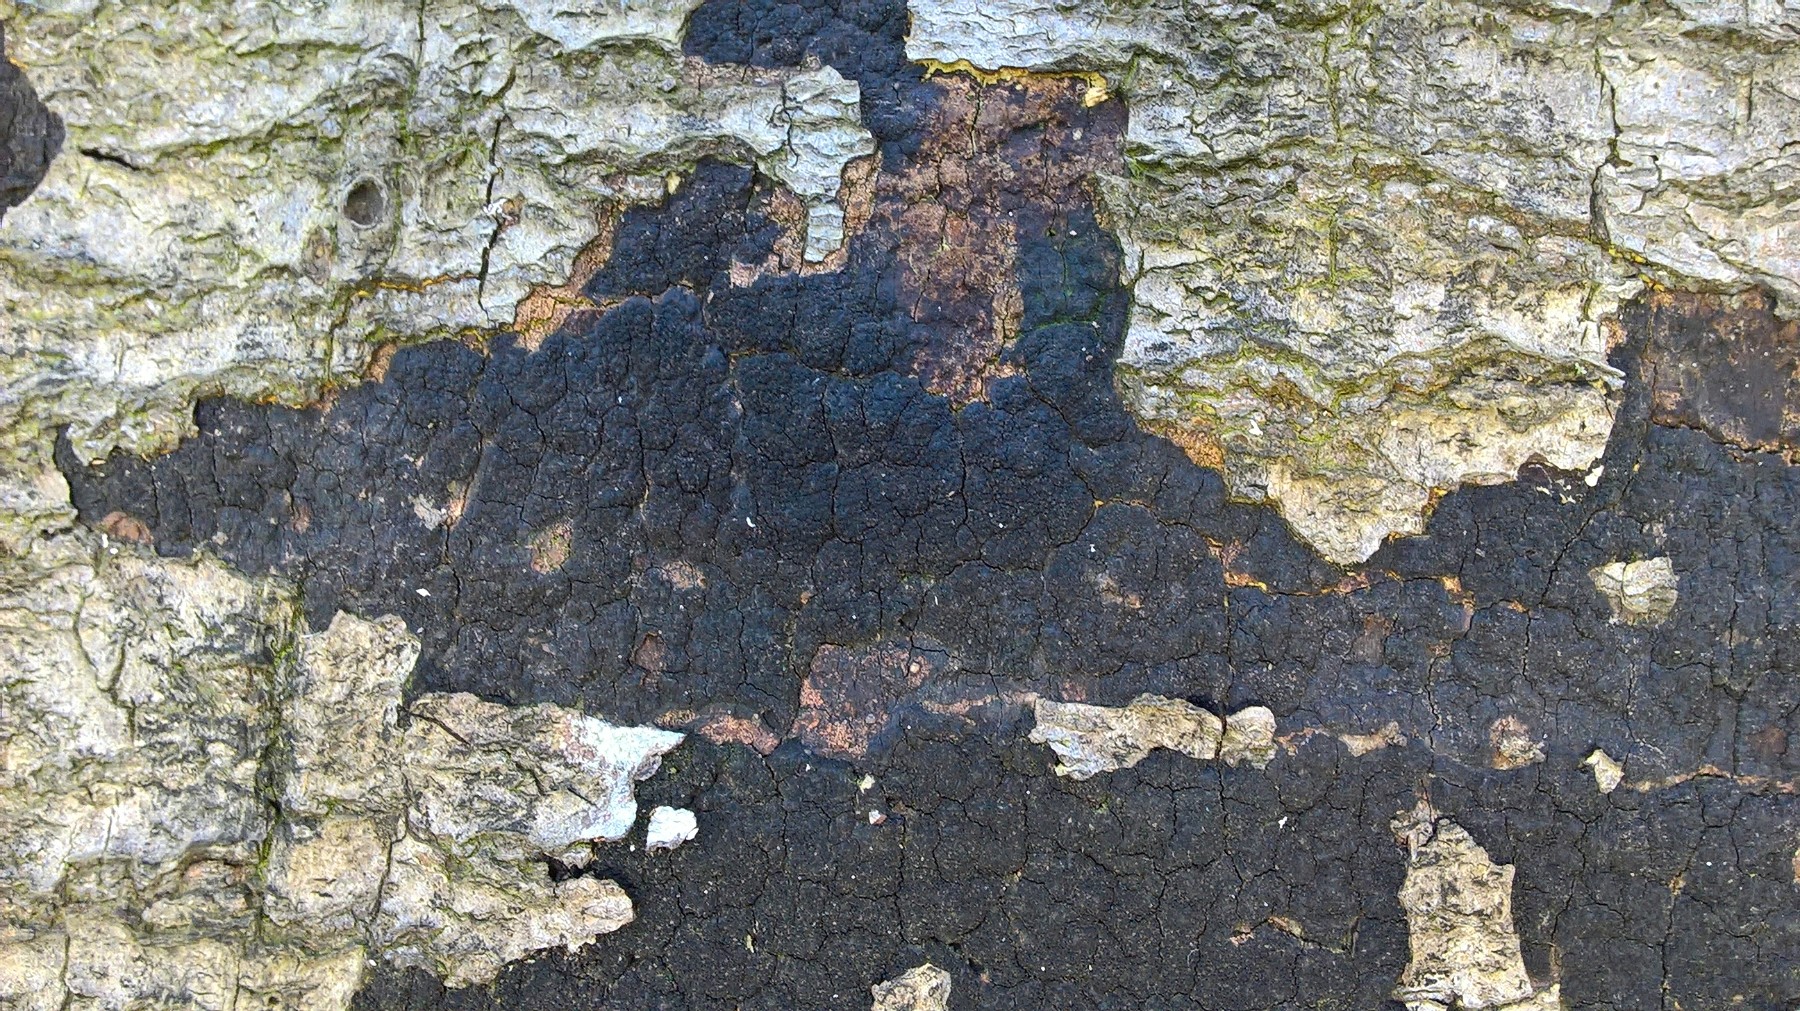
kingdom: Fungi
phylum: Ascomycota
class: Sordariomycetes
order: Xylariales
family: Diatrypaceae
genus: Eutypa
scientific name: Eutypa spinosa
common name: grov kulskorpe
